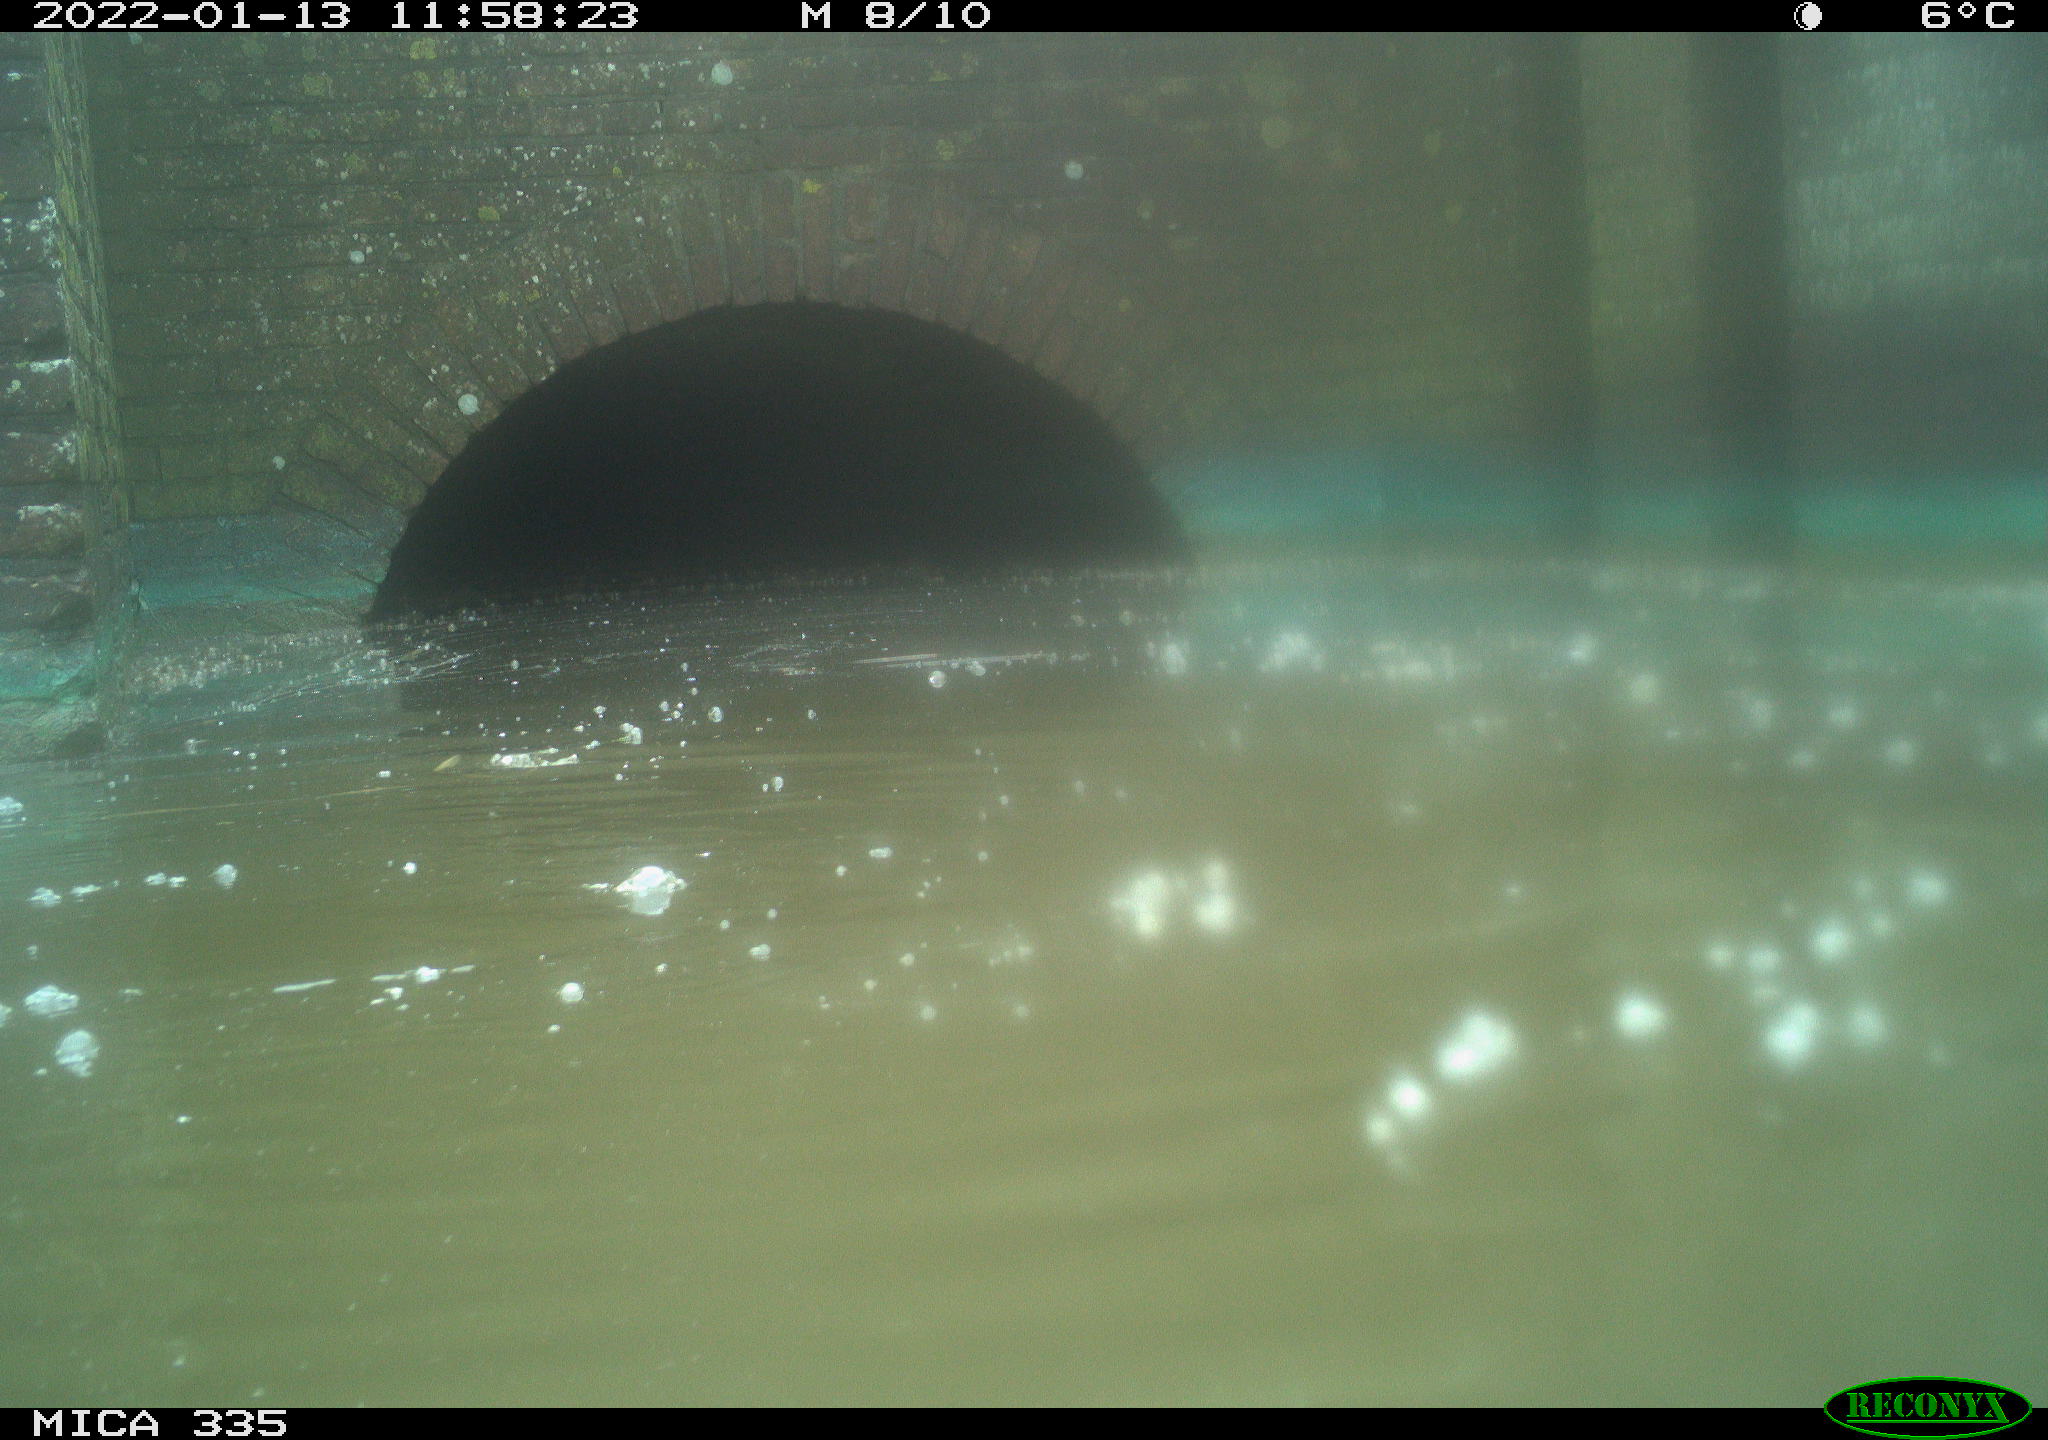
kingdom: Animalia
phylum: Chordata
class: Aves
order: Suliformes
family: Phalacrocoracidae
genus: Phalacrocorax
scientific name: Phalacrocorax carbo
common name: Great cormorant
